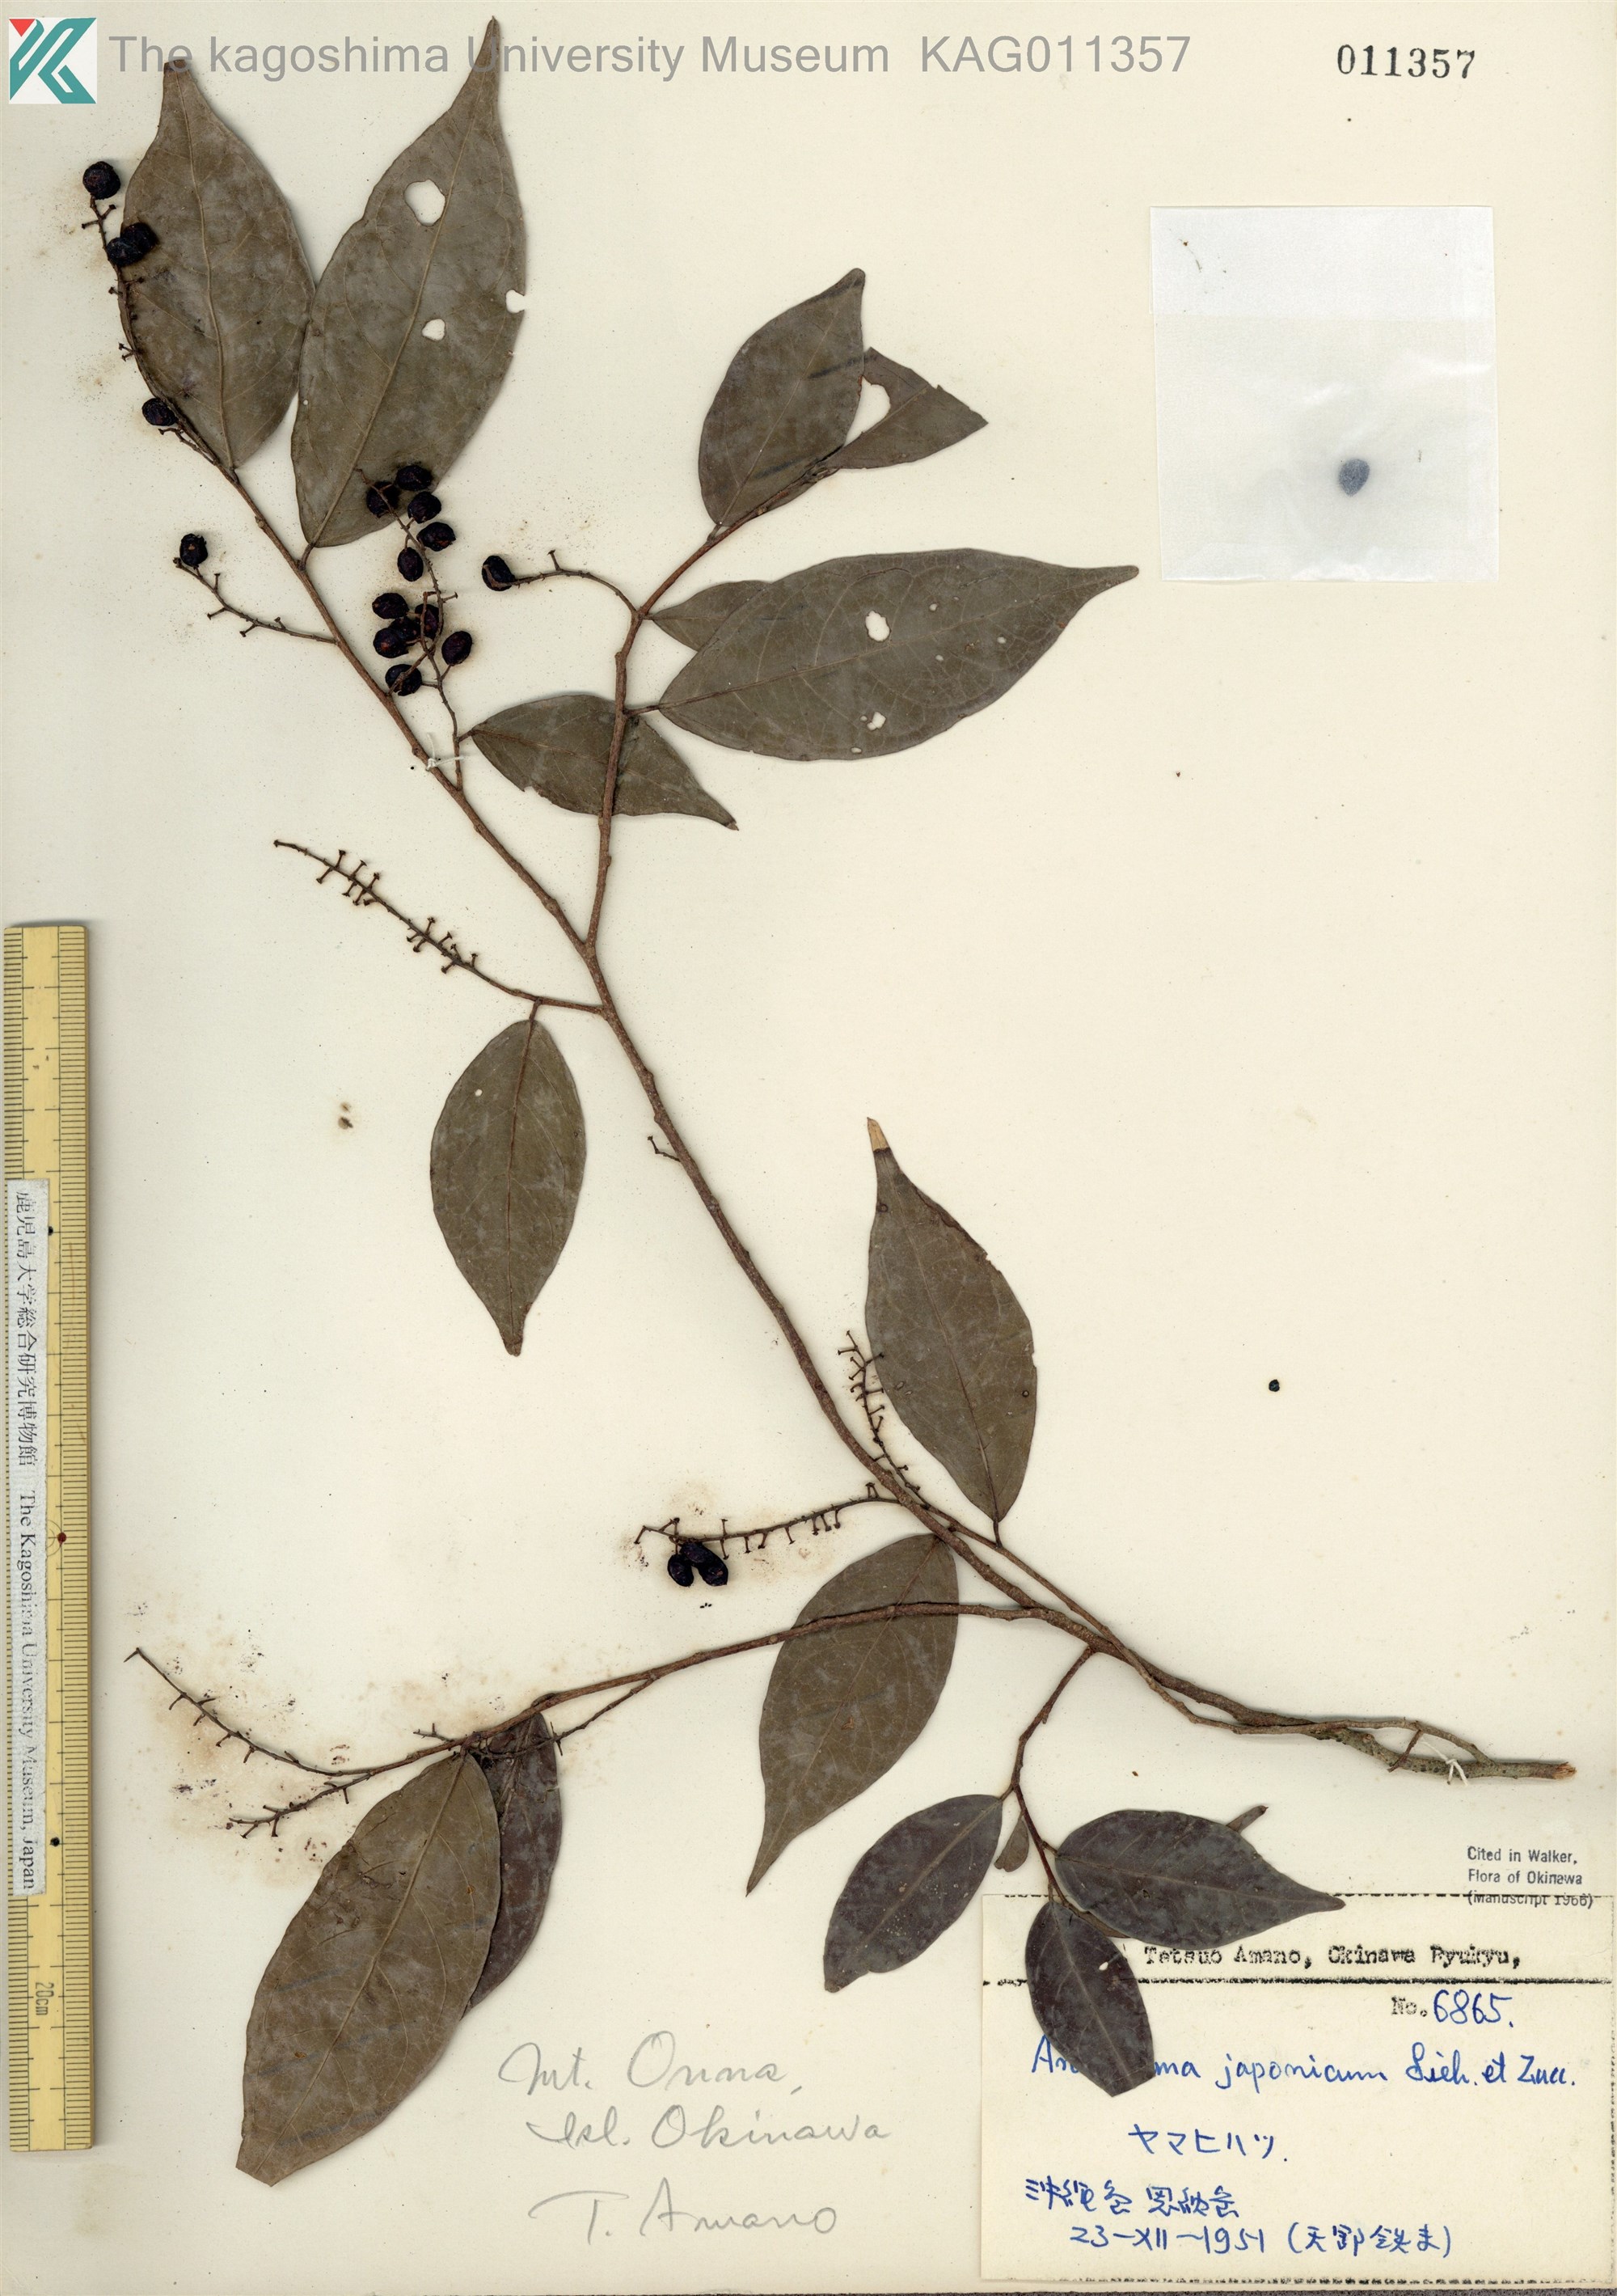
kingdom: Plantae
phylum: Tracheophyta
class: Magnoliopsida
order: Malpighiales
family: Phyllanthaceae
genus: Antidesma
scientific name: Antidesma japonicum
